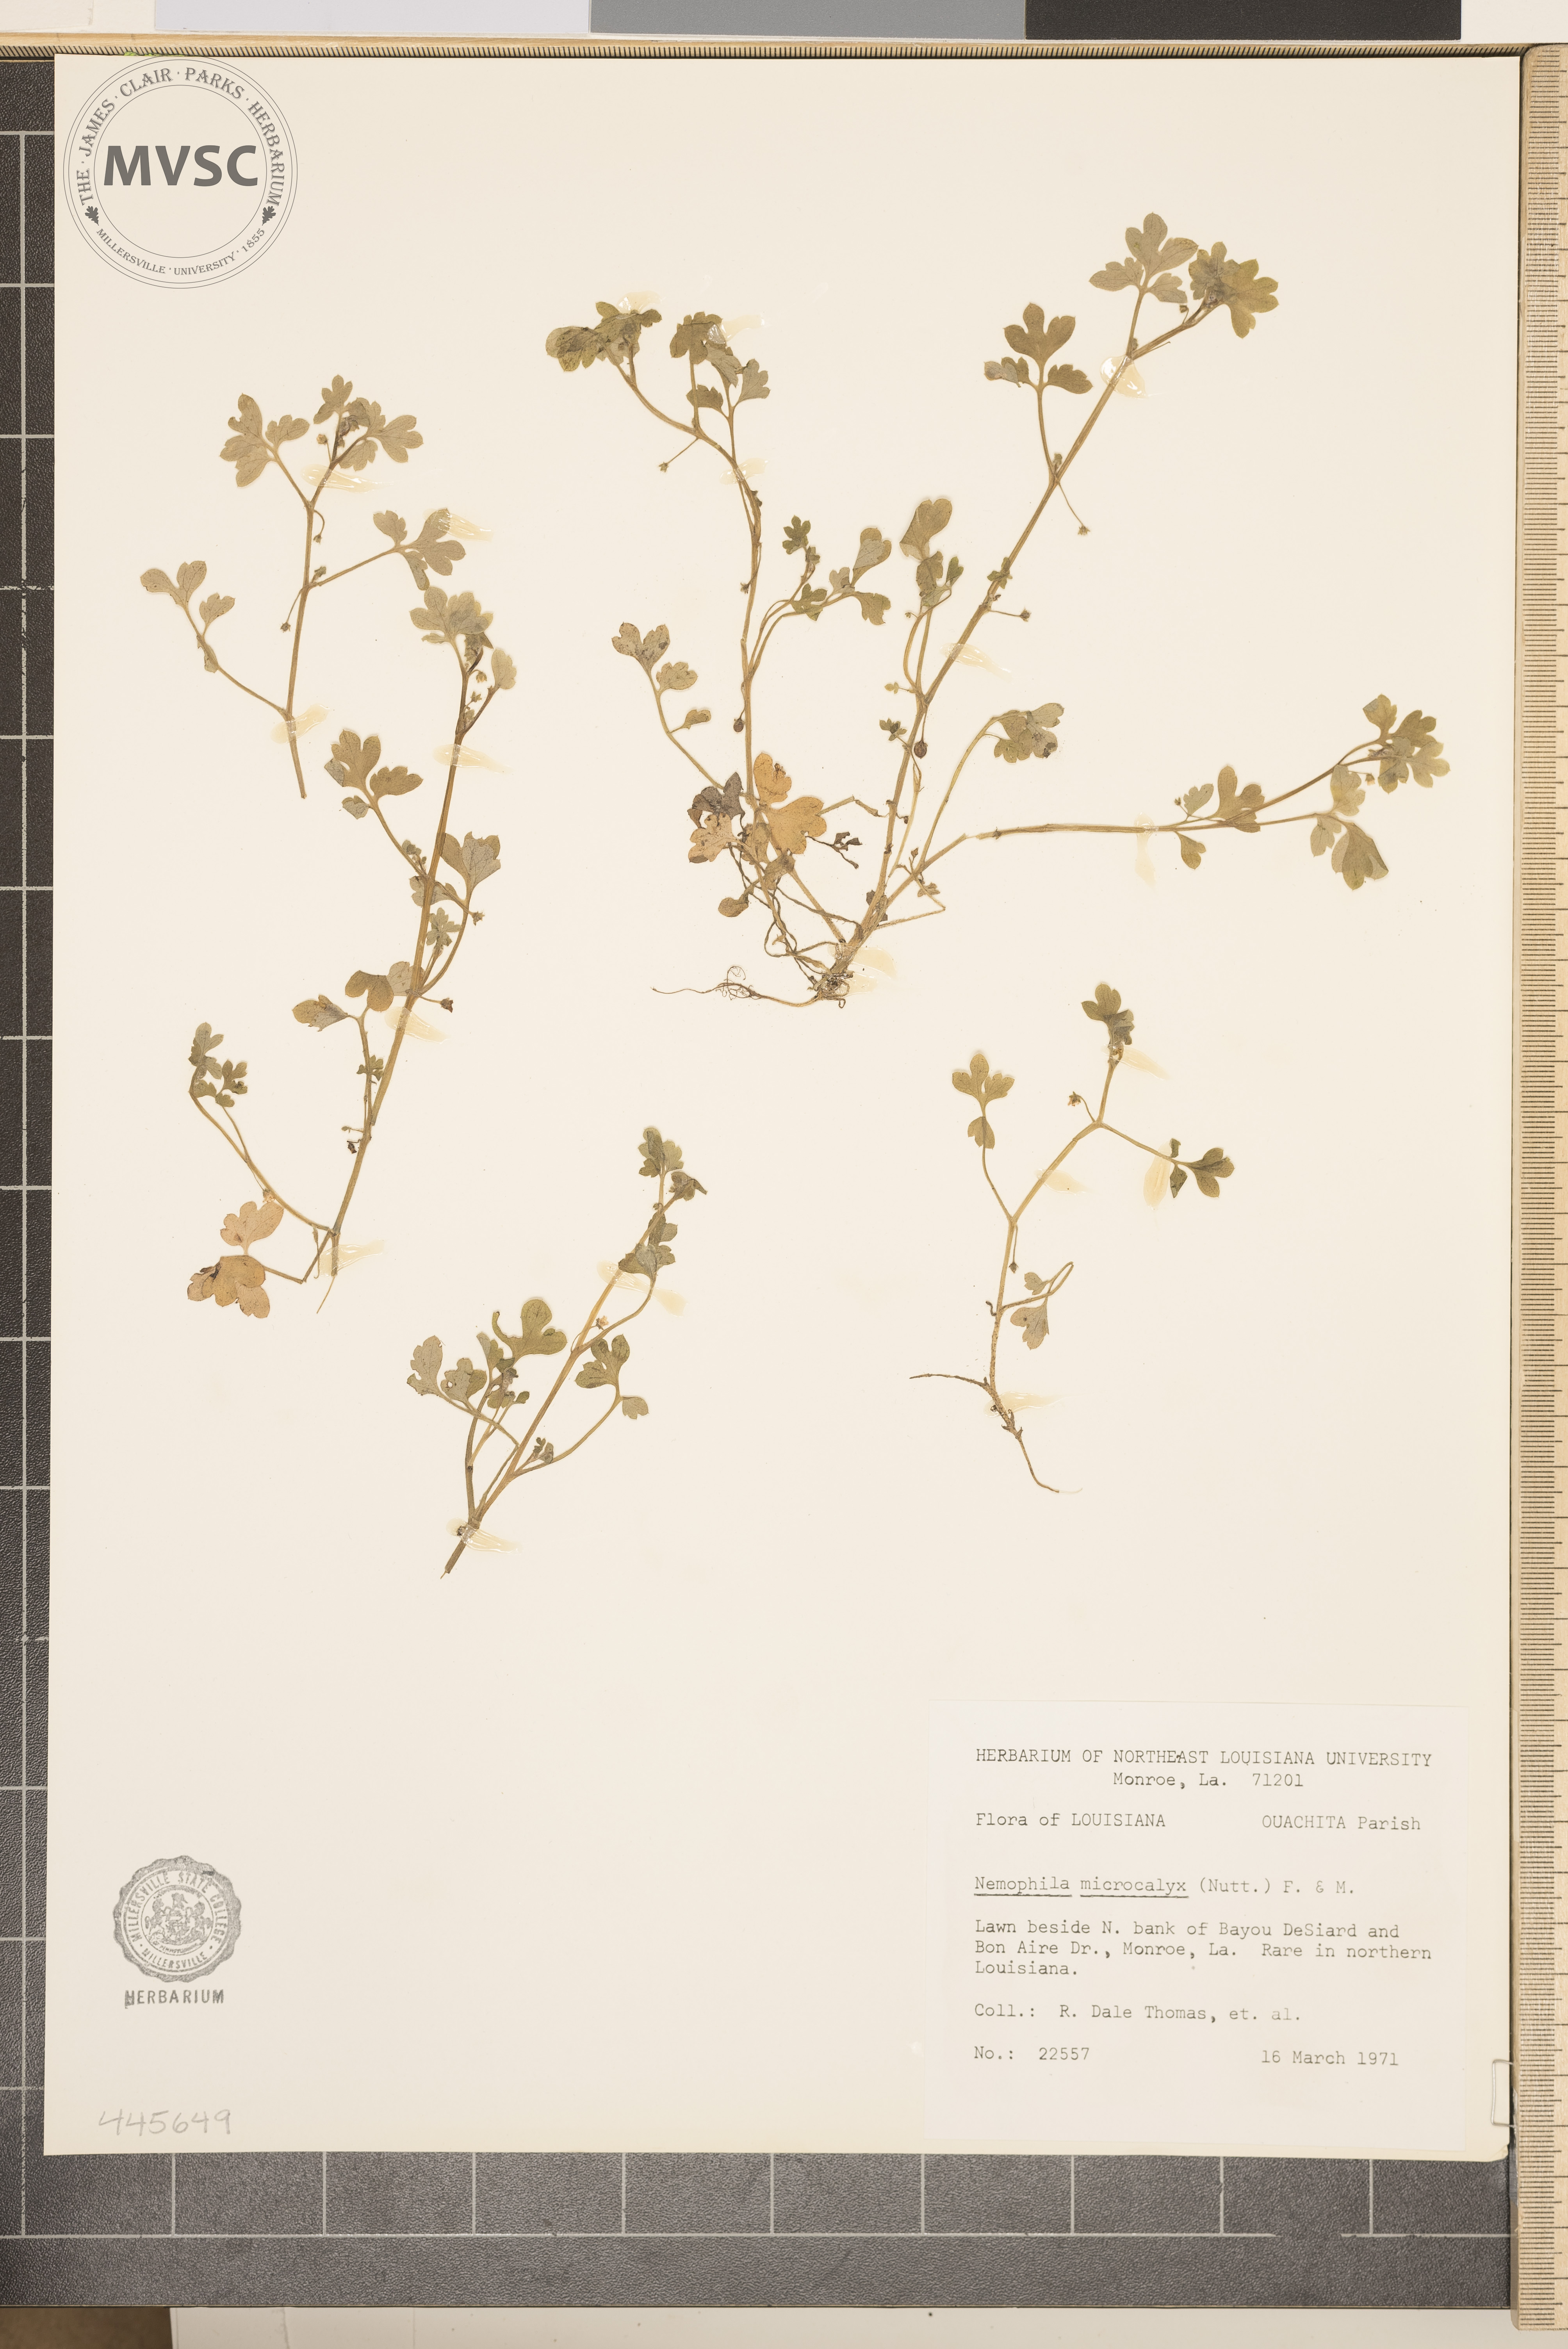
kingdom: Plantae
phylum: Tracheophyta
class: Magnoliopsida
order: Boraginales
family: Hydrophyllaceae
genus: Nemophila
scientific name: Nemophila aphylla
